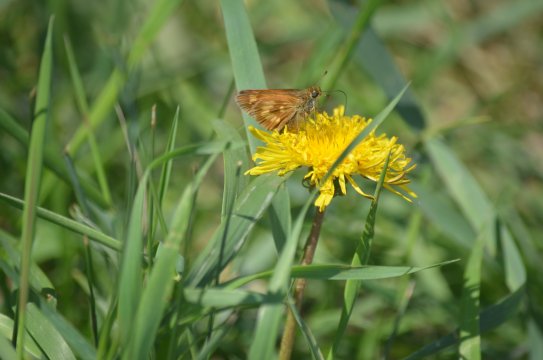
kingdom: Animalia
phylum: Arthropoda
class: Insecta
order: Lepidoptera
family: Hesperiidae
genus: Polites
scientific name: Polites
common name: Long Dash Skipper
